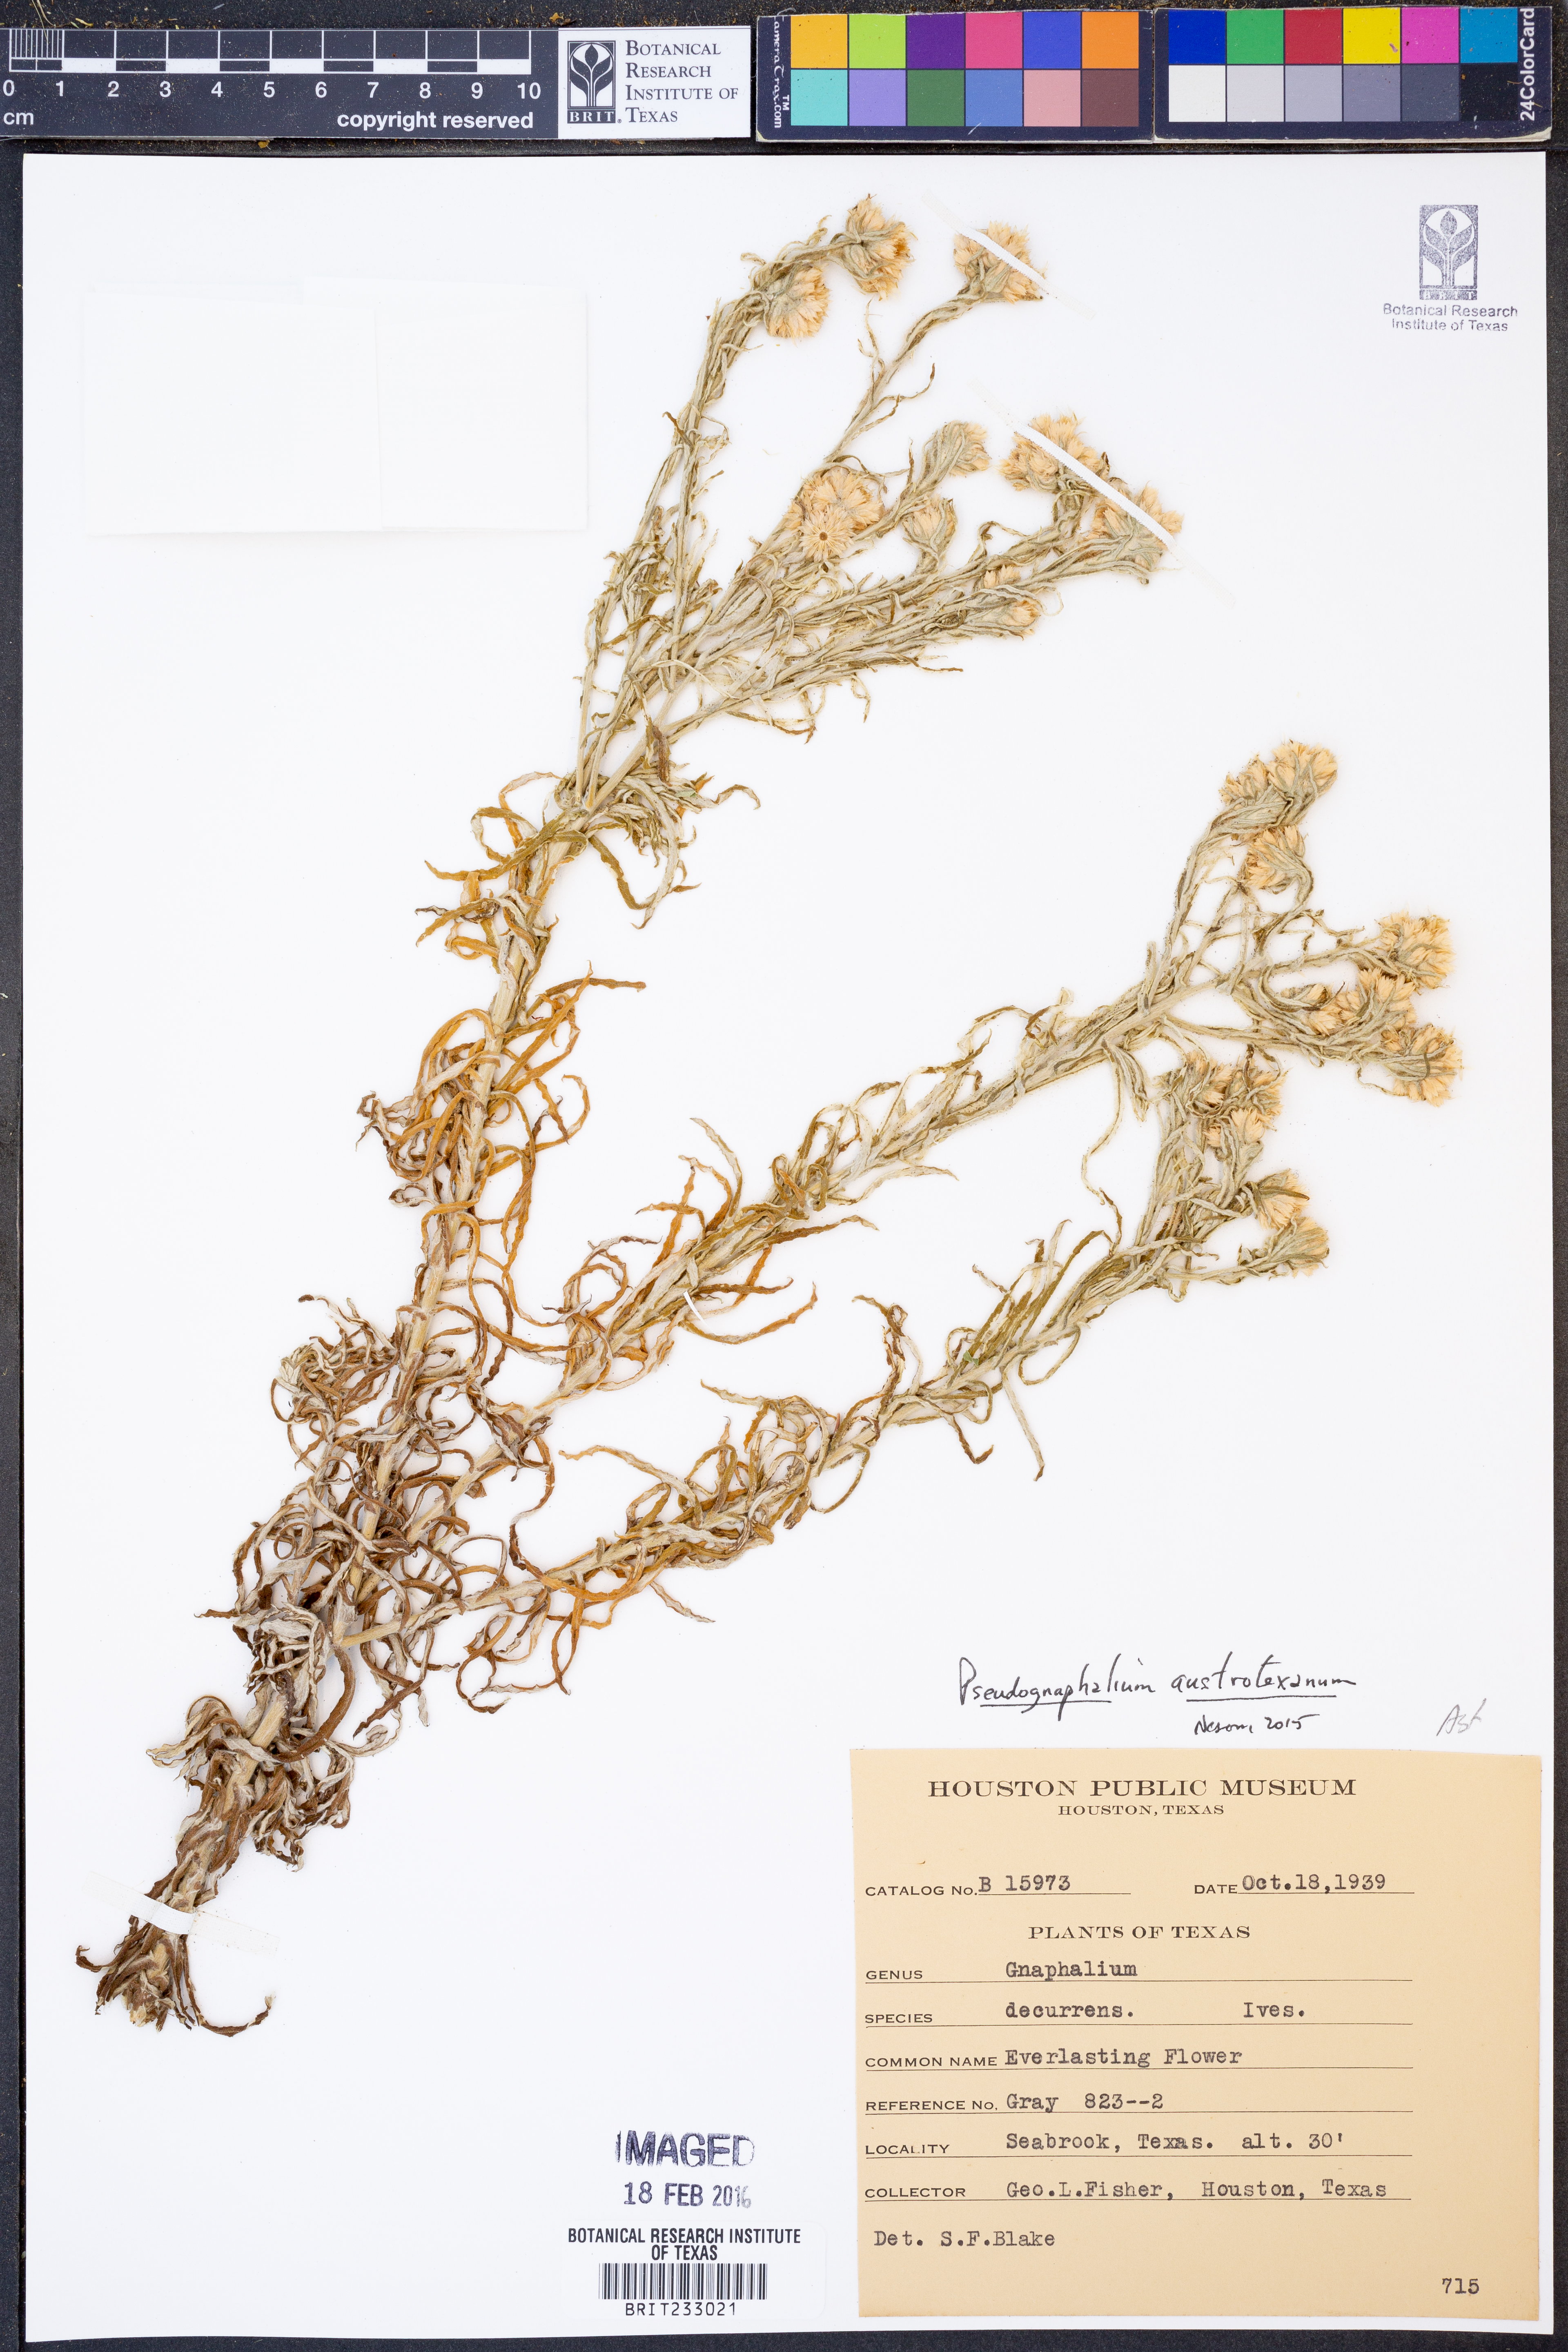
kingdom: Plantae
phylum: Tracheophyta
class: Magnoliopsida
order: Asterales
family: Asteraceae
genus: Pseudognaphalium
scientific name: Pseudognaphalium austrotexanum
